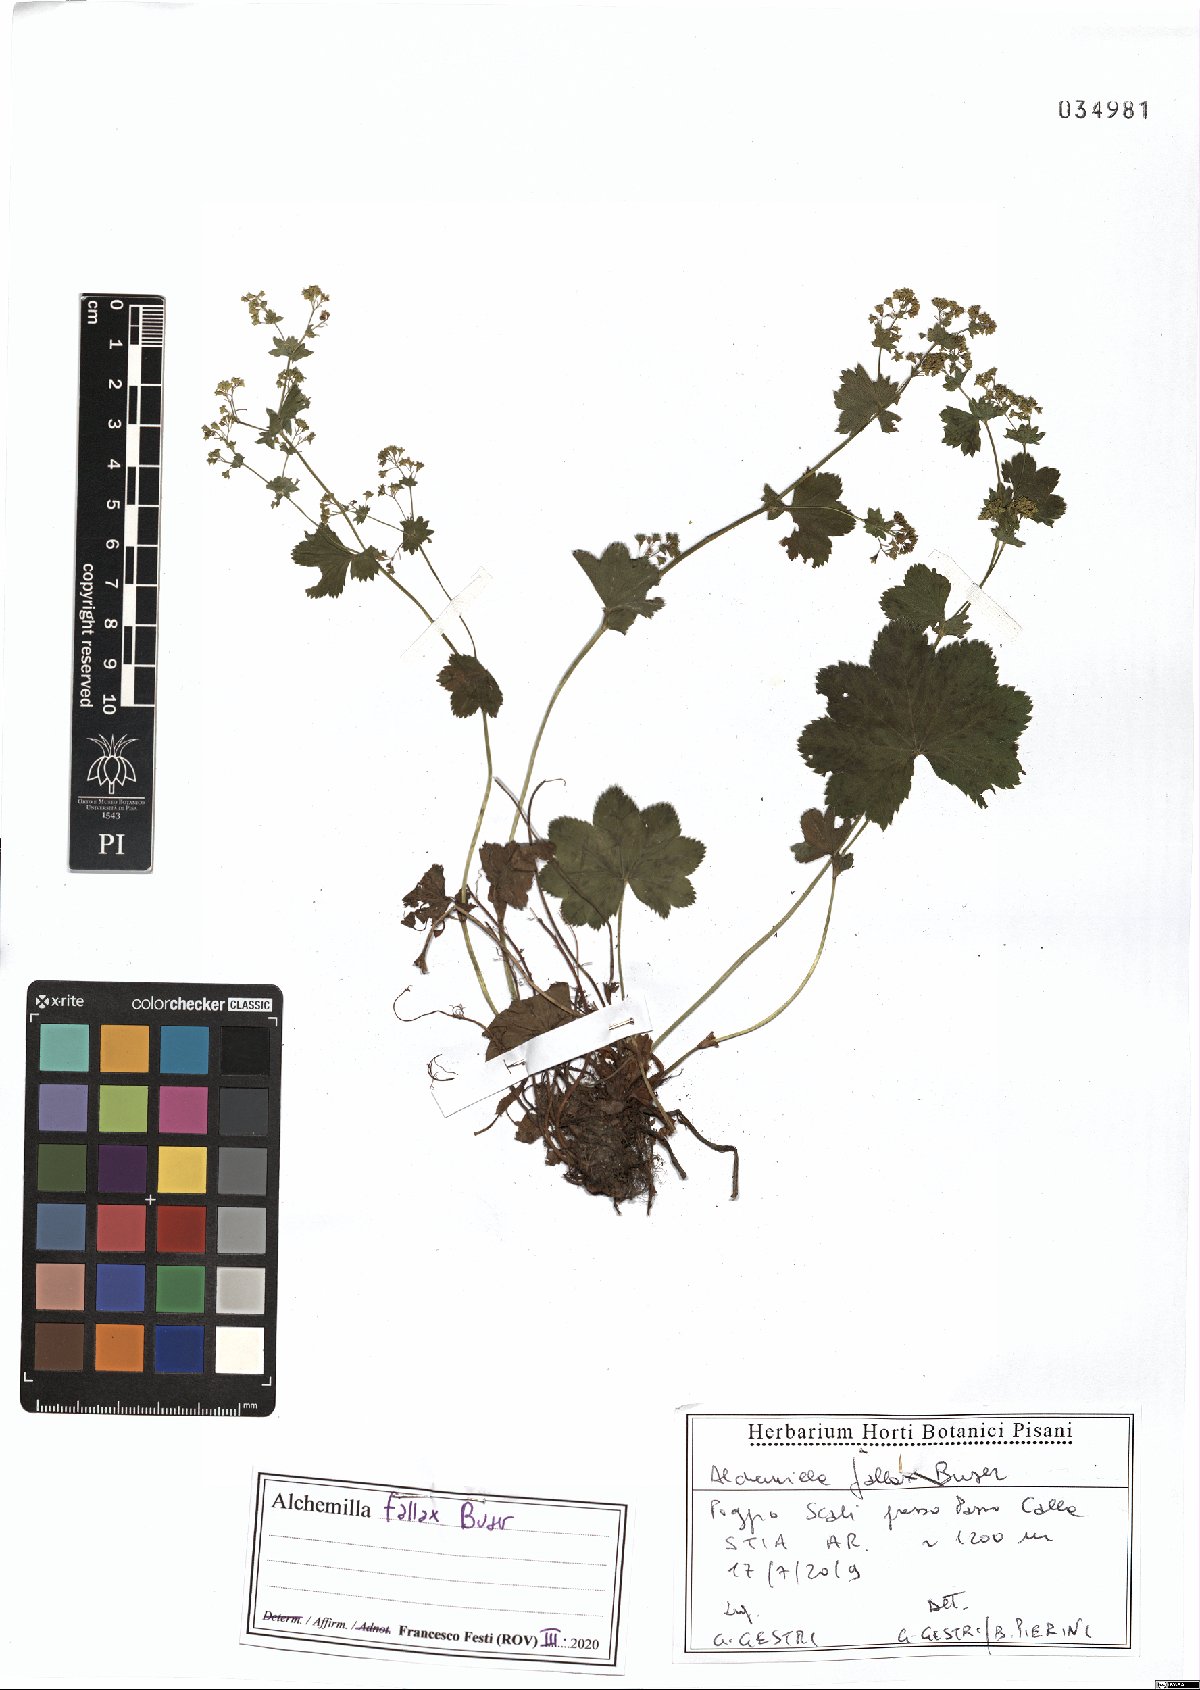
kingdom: Plantae
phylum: Tracheophyta
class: Magnoliopsida
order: Rosales
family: Rosaceae
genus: Alchemilla
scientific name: Alchemilla fallax
